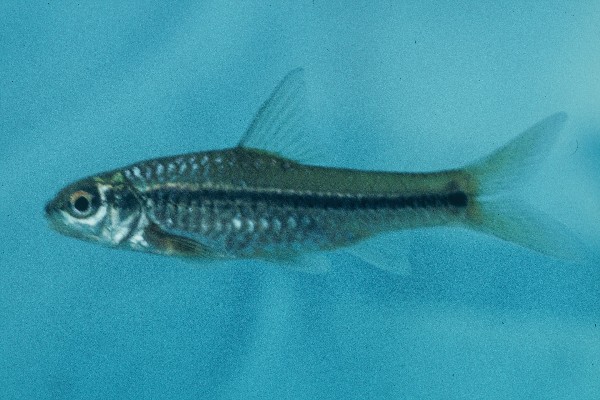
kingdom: Animalia
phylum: Chordata
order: Cypriniformes
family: Cyprinidae
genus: Enteromius
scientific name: Enteromius annectens
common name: Broadstriped barb
